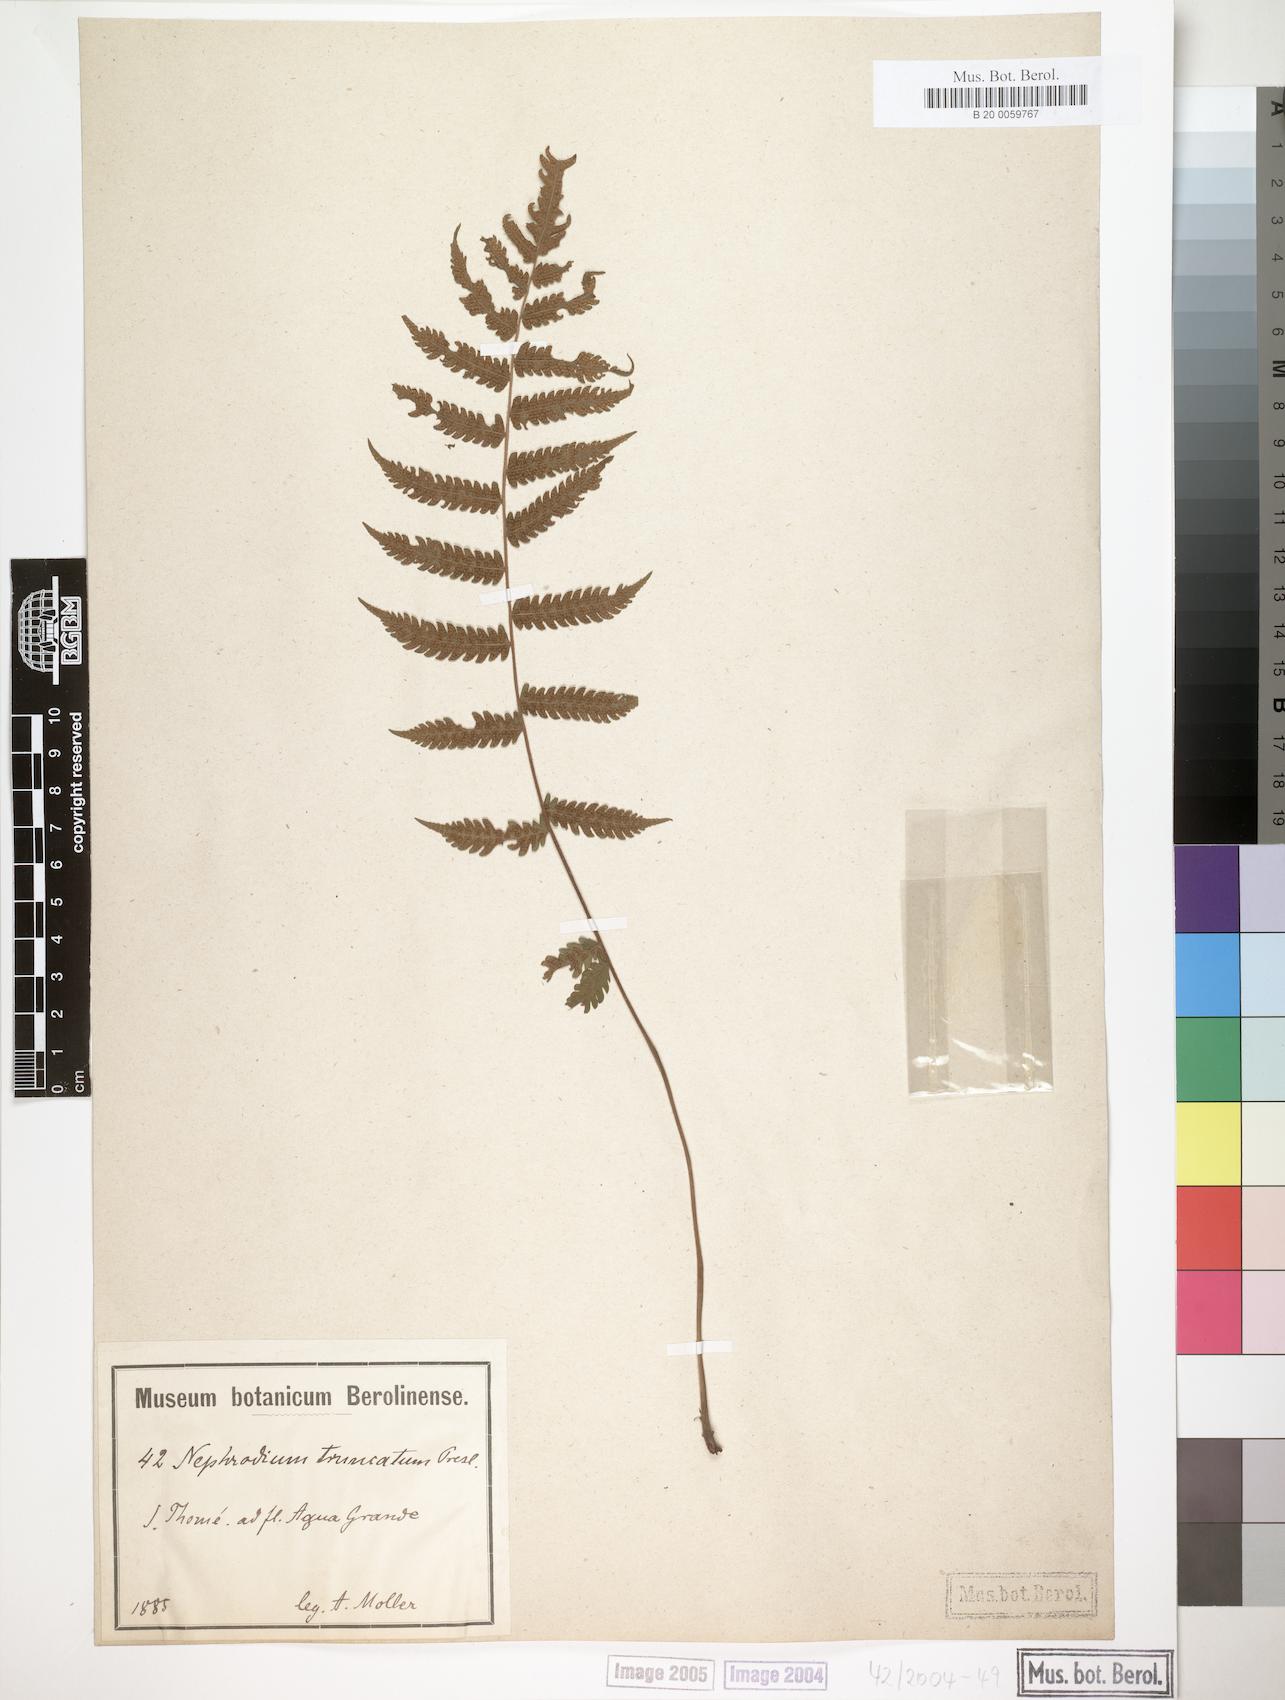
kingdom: Plantae
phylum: Tracheophyta
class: Polypodiopsida
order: Polypodiales
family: Thelypteridaceae
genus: Christella
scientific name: Christella dentata
